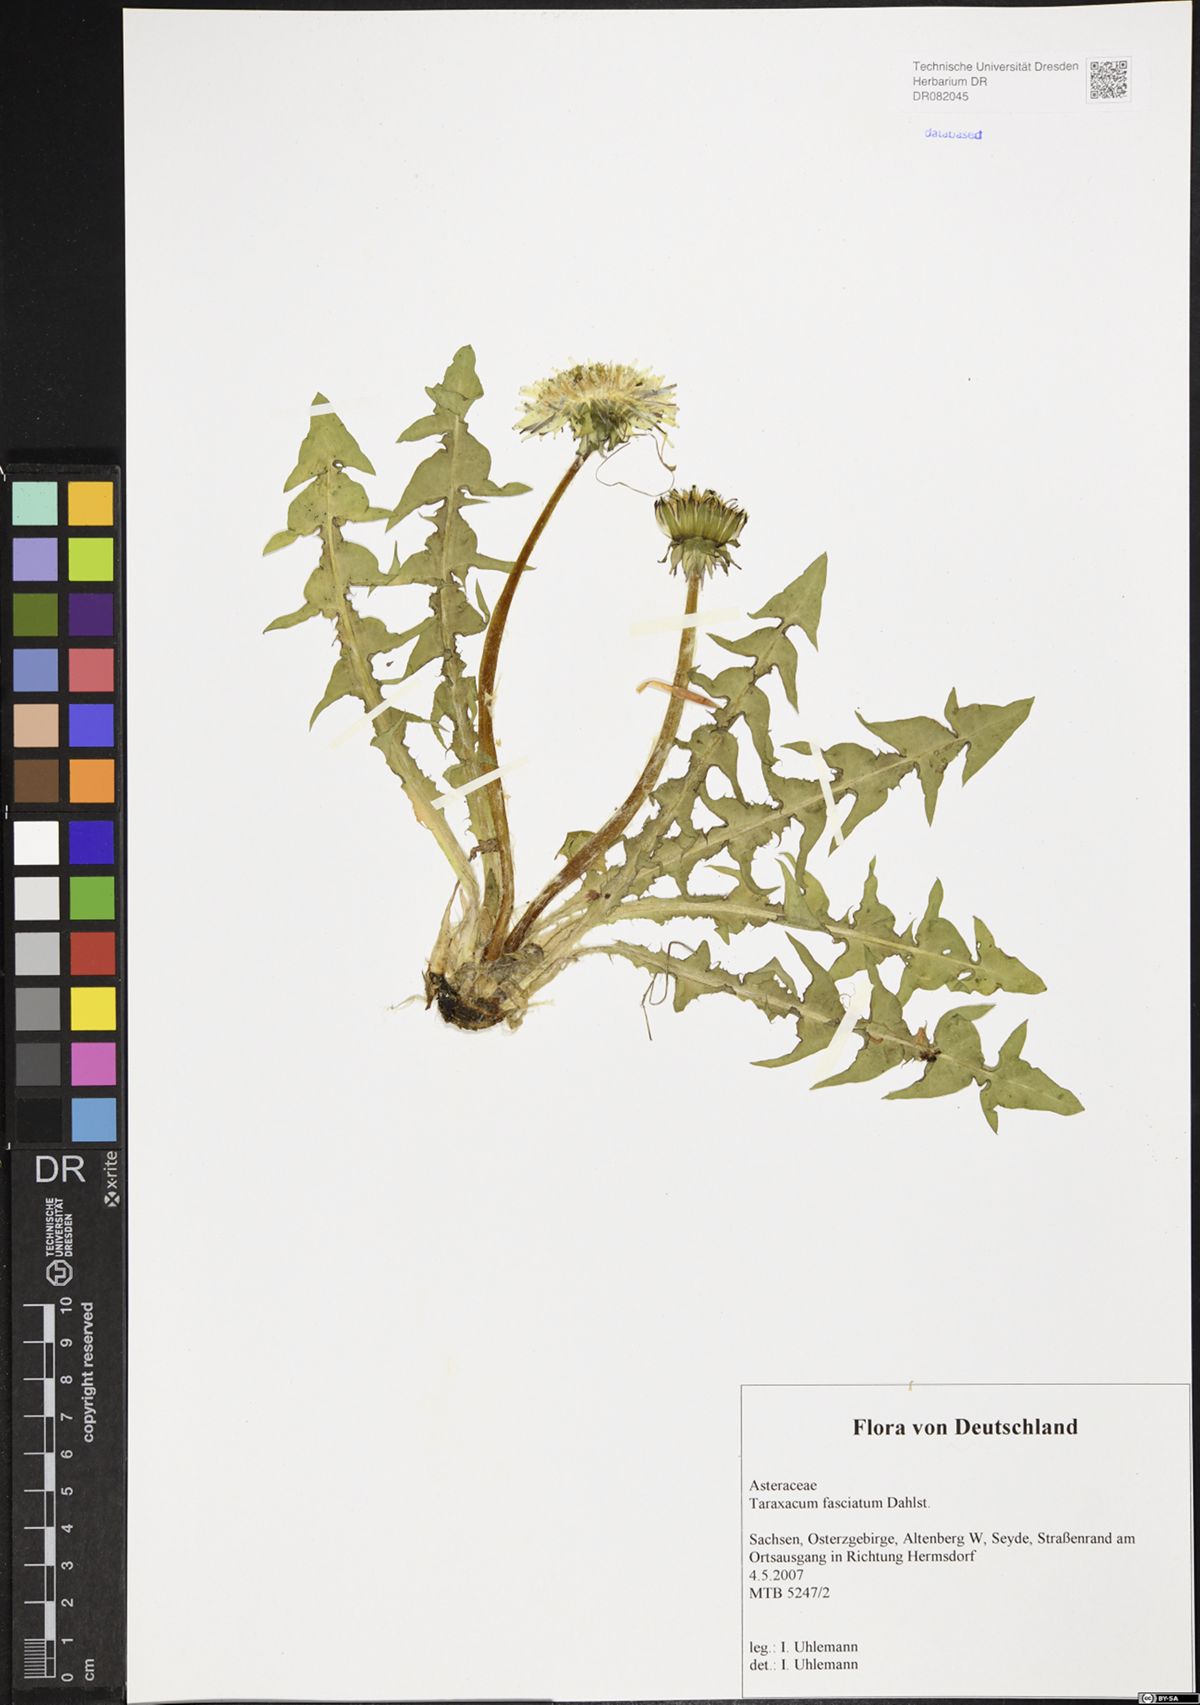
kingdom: Plantae
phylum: Tracheophyta
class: Magnoliopsida
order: Asterales
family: Asteraceae
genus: Taraxacum
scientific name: Taraxacum fasciatum
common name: Dense-bracted dandelion
